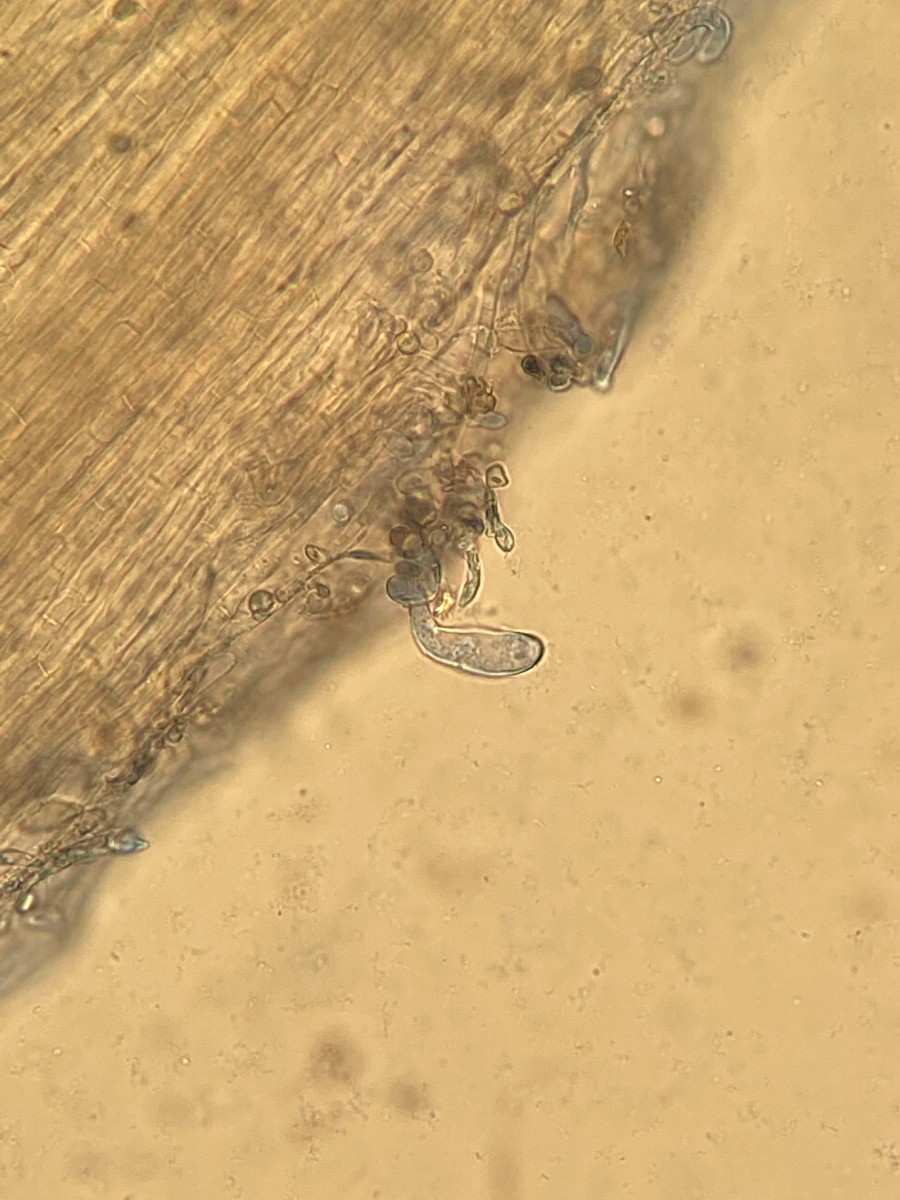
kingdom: Fungi
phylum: Basidiomycota
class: Agaricomycetes
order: Agaricales
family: Clavariaceae
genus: Hodophilus
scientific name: Hodophilus tenuicystidiatus
